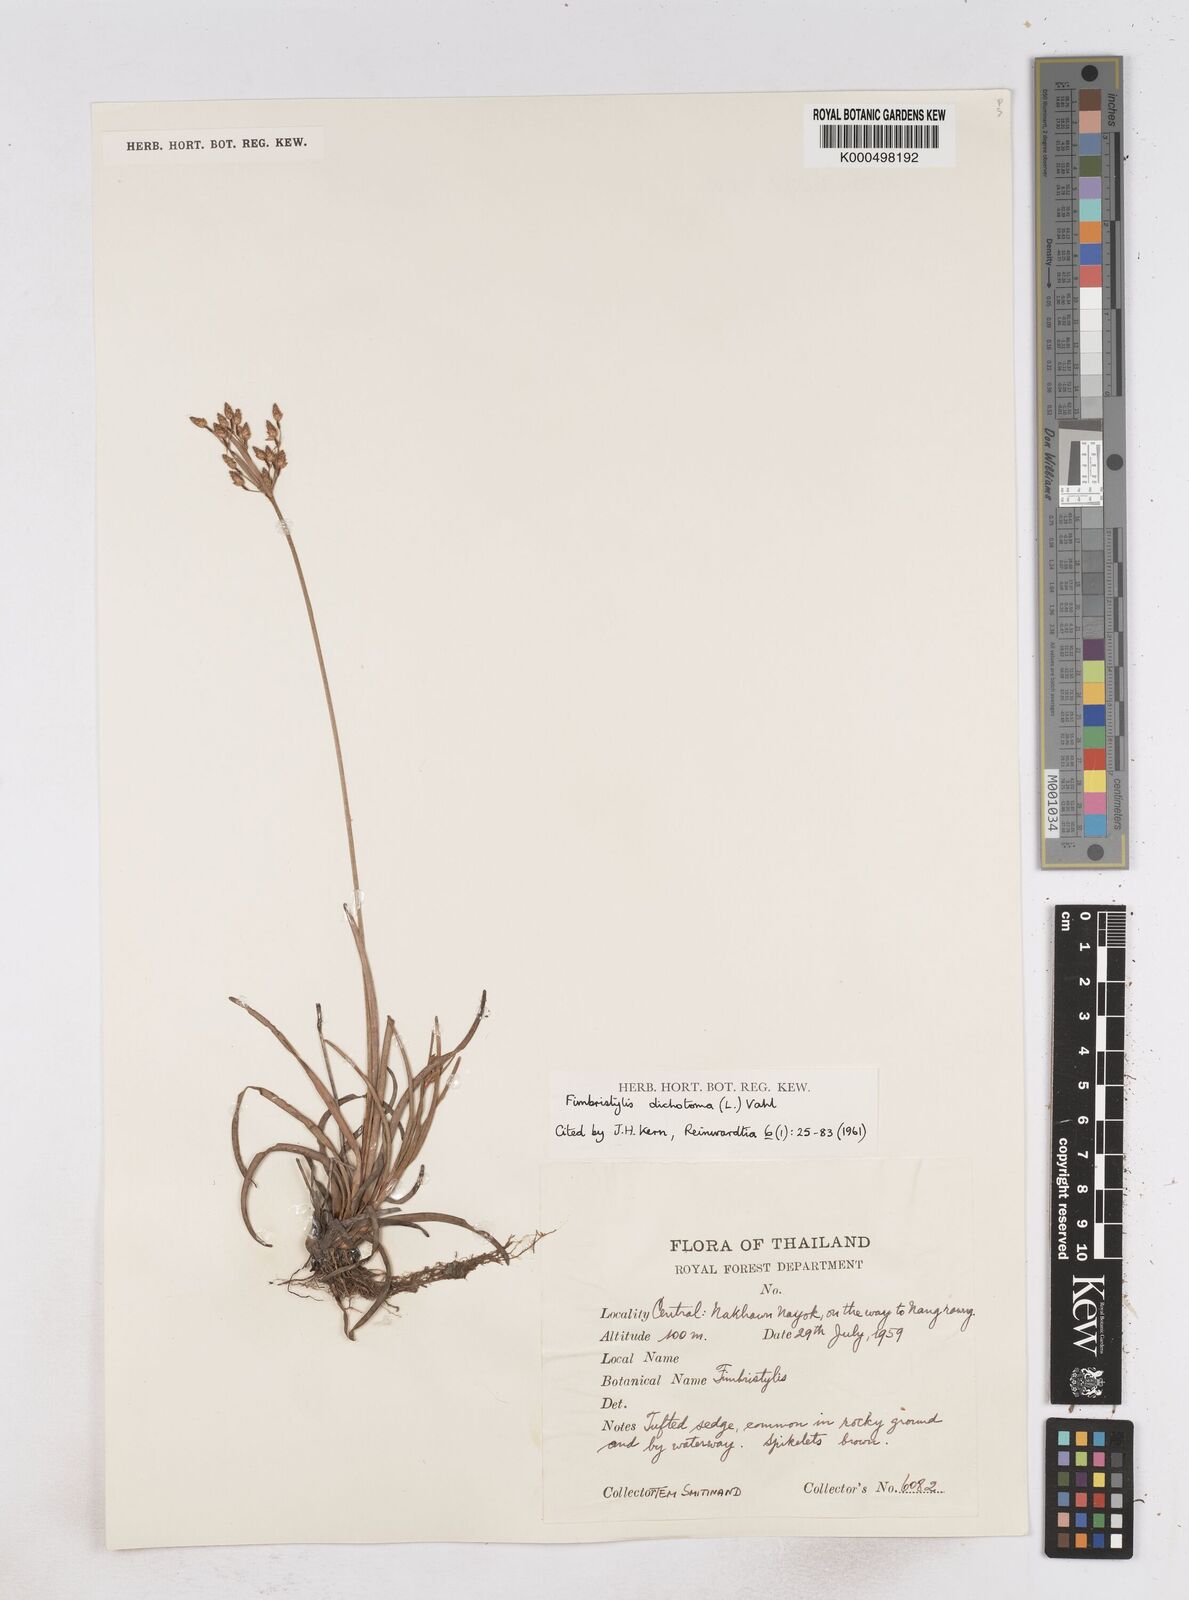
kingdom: Plantae
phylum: Tracheophyta
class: Liliopsida
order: Poales
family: Cyperaceae
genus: Fimbristylis
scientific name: Fimbristylis dichotoma
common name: Forked fimbry
